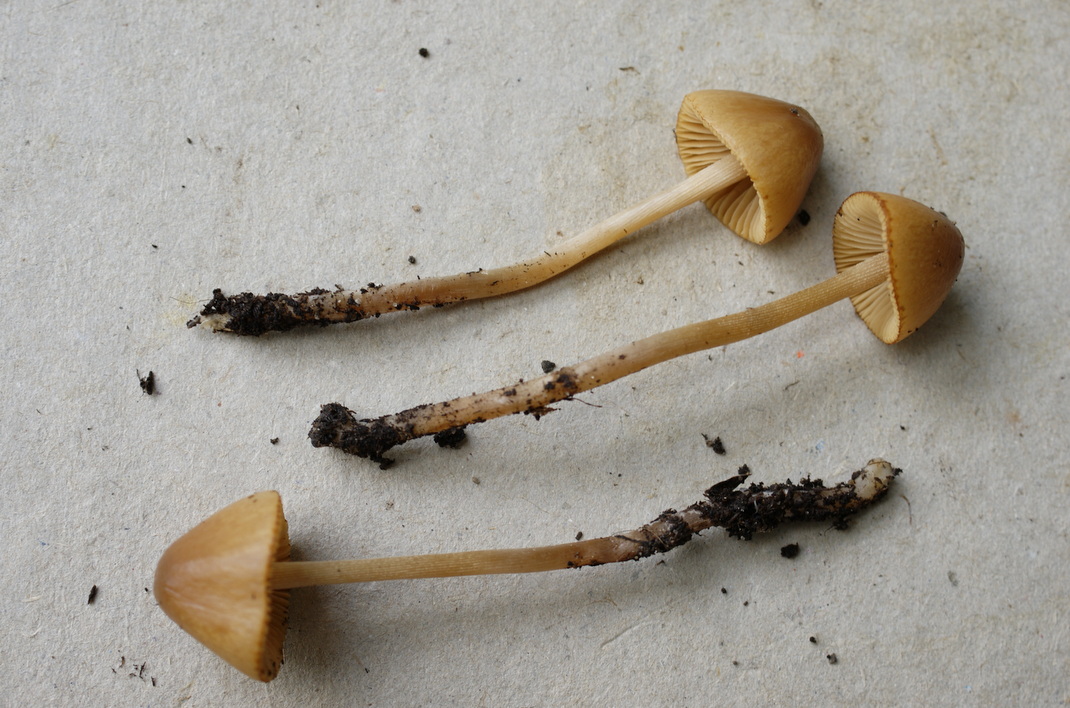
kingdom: Fungi
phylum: Basidiomycota
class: Agaricomycetes
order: Agaricales
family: Bolbitiaceae
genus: Conocybe
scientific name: Conocybe rickenii
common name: møg-keglehat
